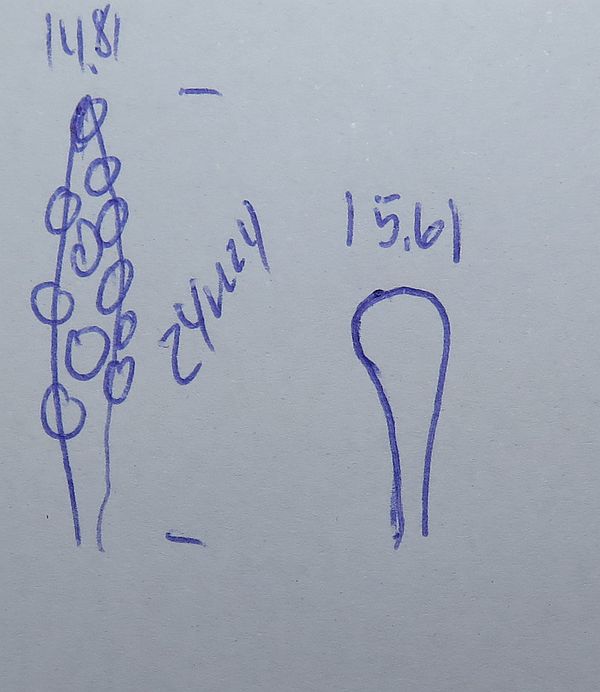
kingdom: Fungi
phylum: Basidiomycota
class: Agaricomycetes
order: Hymenochaetales
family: Schizoporaceae
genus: Xylodon
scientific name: Xylodon flaviporus
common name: gulporet tandsvamp
